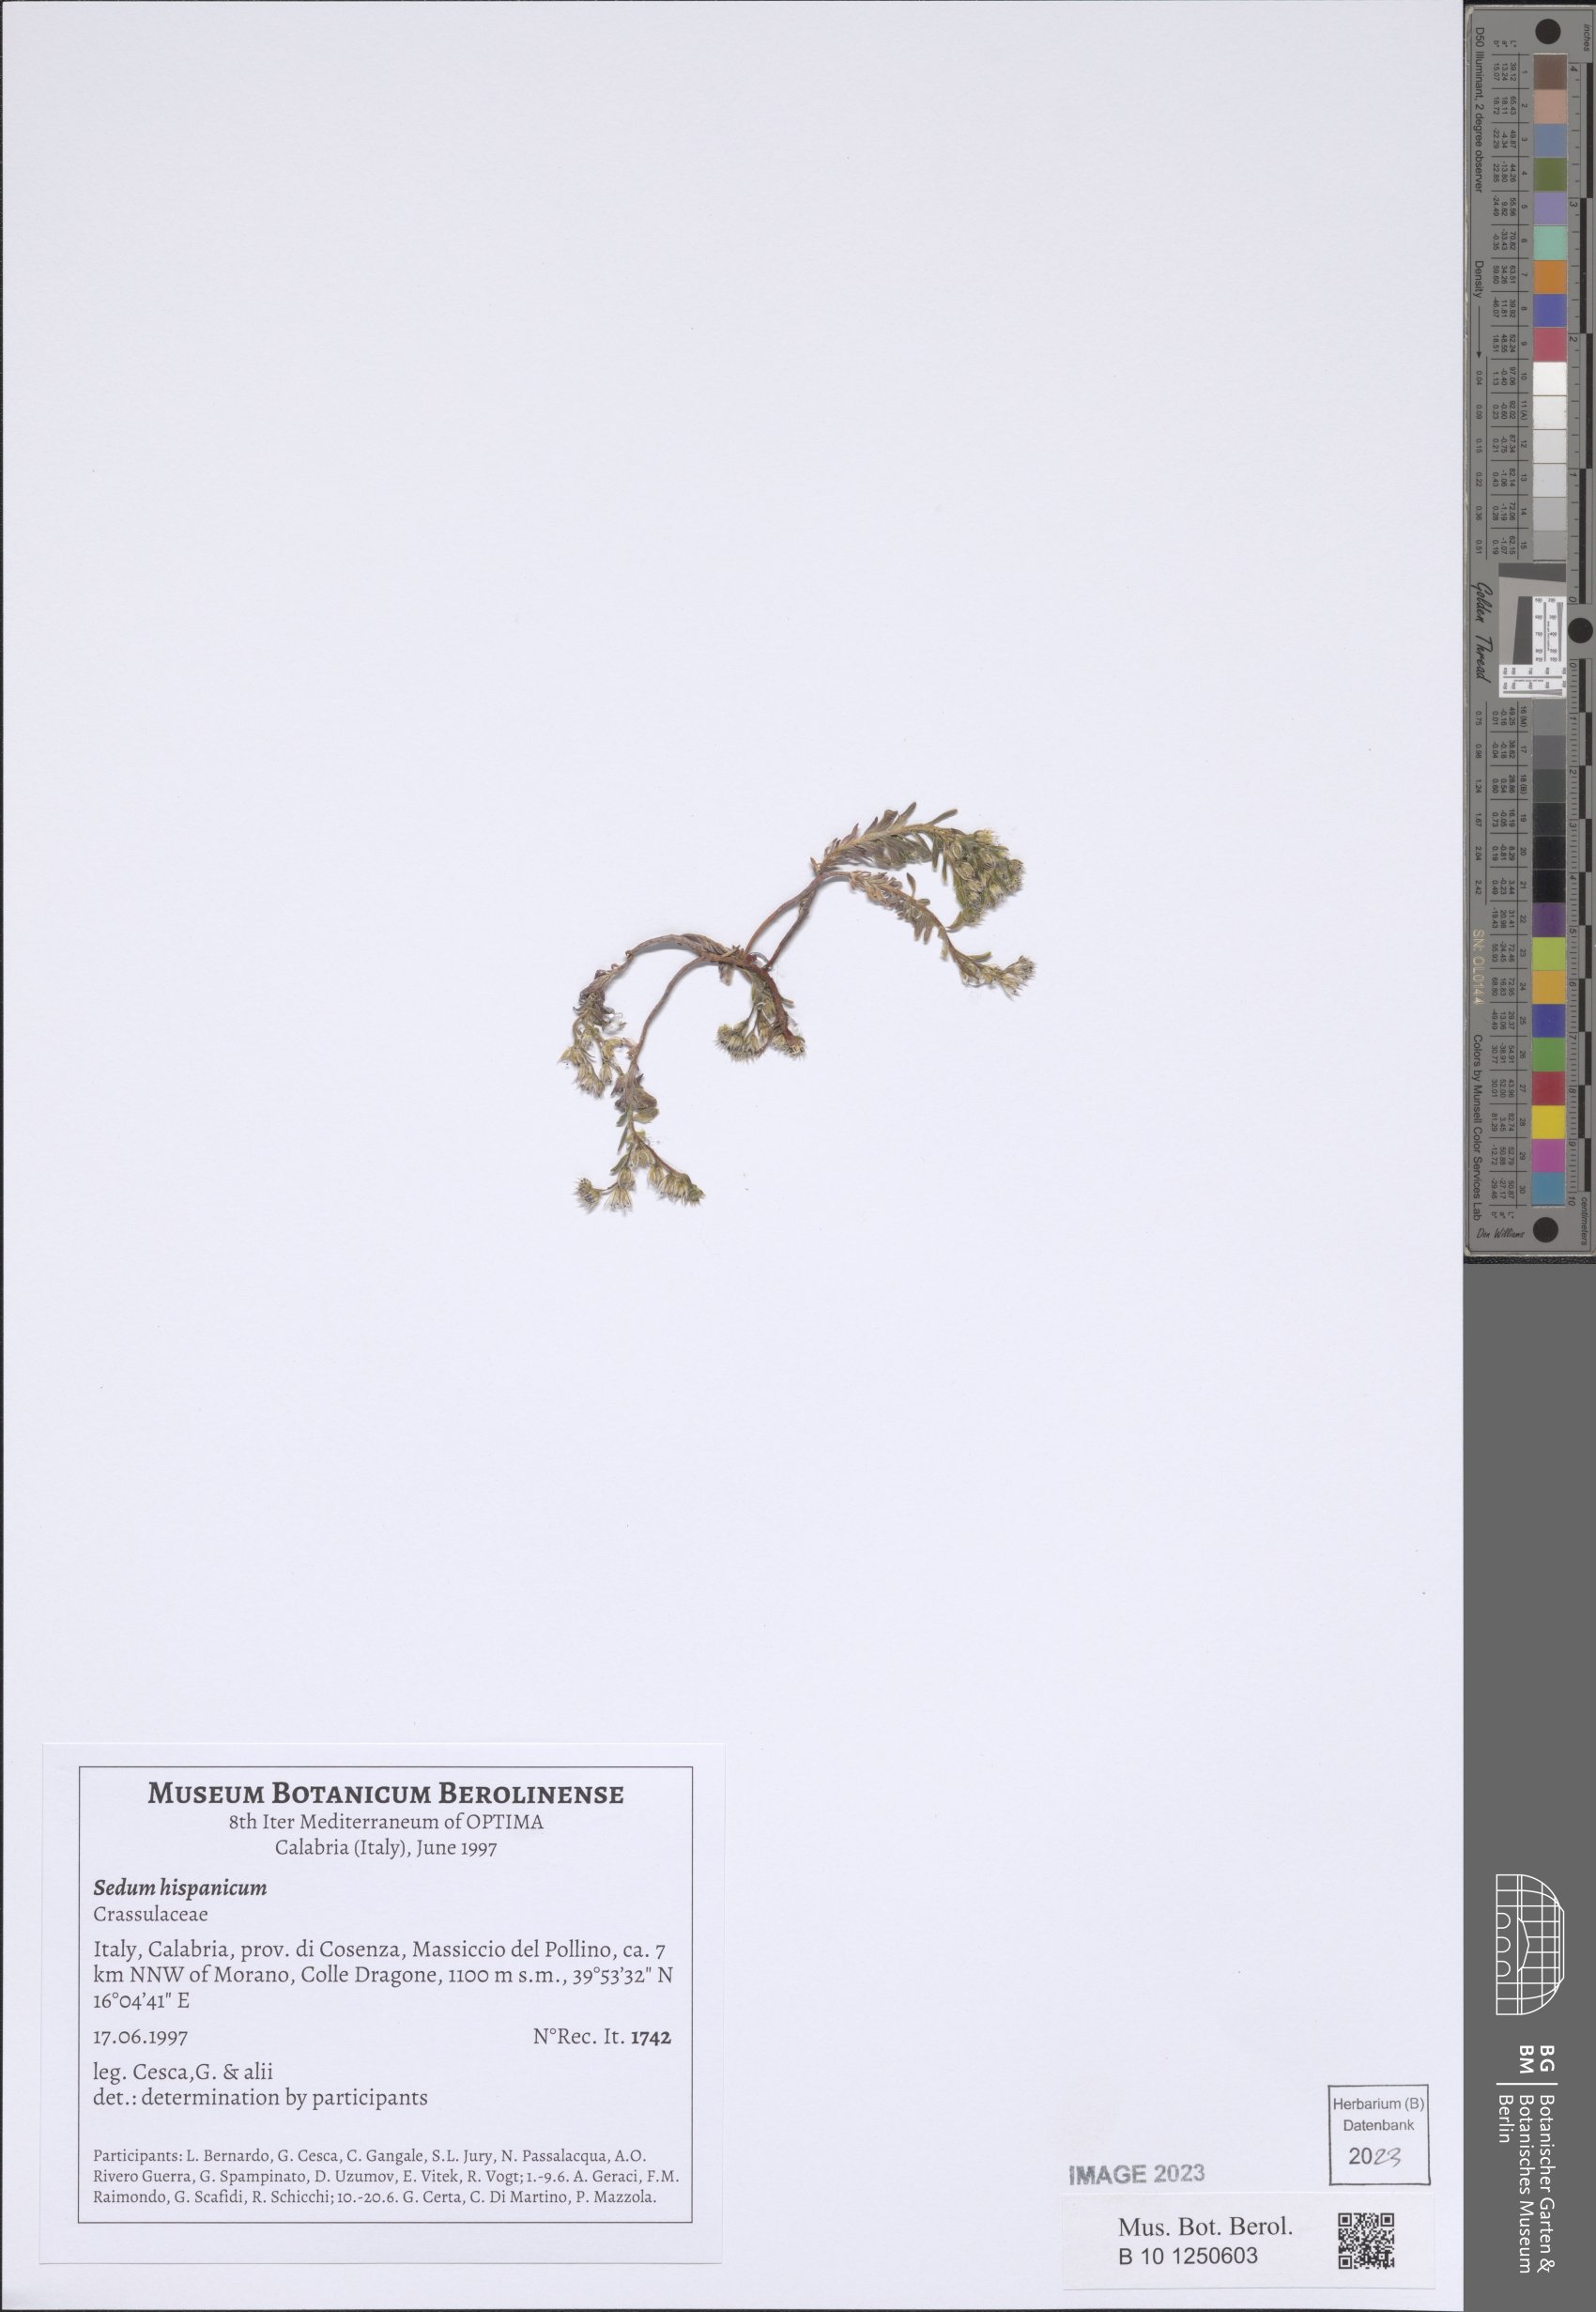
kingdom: Plantae
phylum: Tracheophyta
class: Magnoliopsida
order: Saxifragales
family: Crassulaceae
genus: Sedum
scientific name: Sedum hispanicum
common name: Spanish stonecrop
